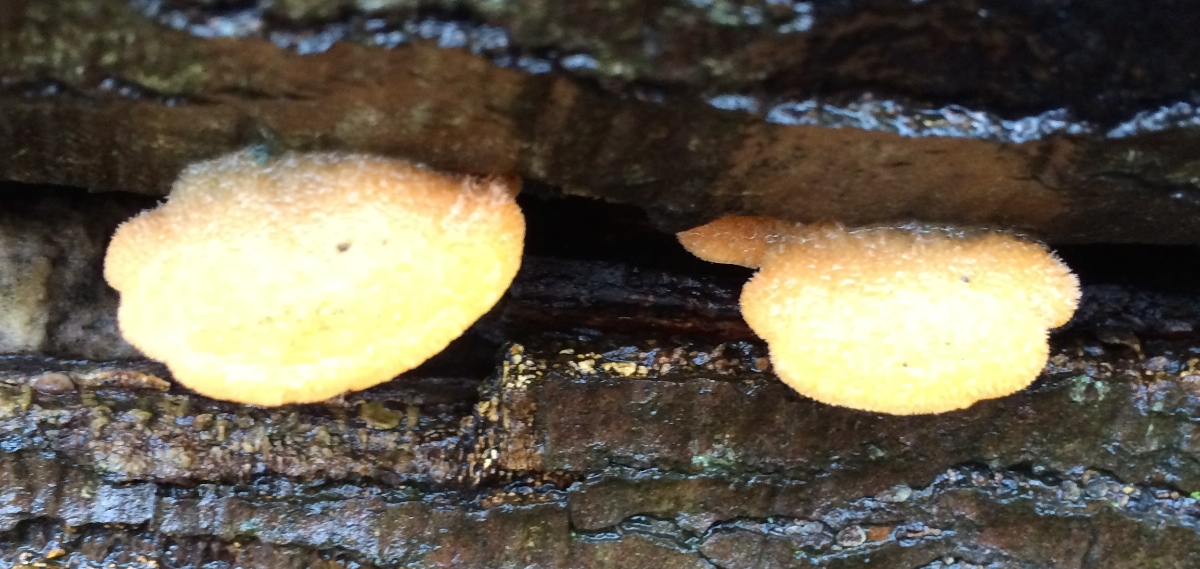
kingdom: Fungi
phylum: Basidiomycota
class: Agaricomycetes
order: Agaricales
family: Phyllotopsidaceae
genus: Phyllotopsis
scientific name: Phyllotopsis nidulans
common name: okkerblad
